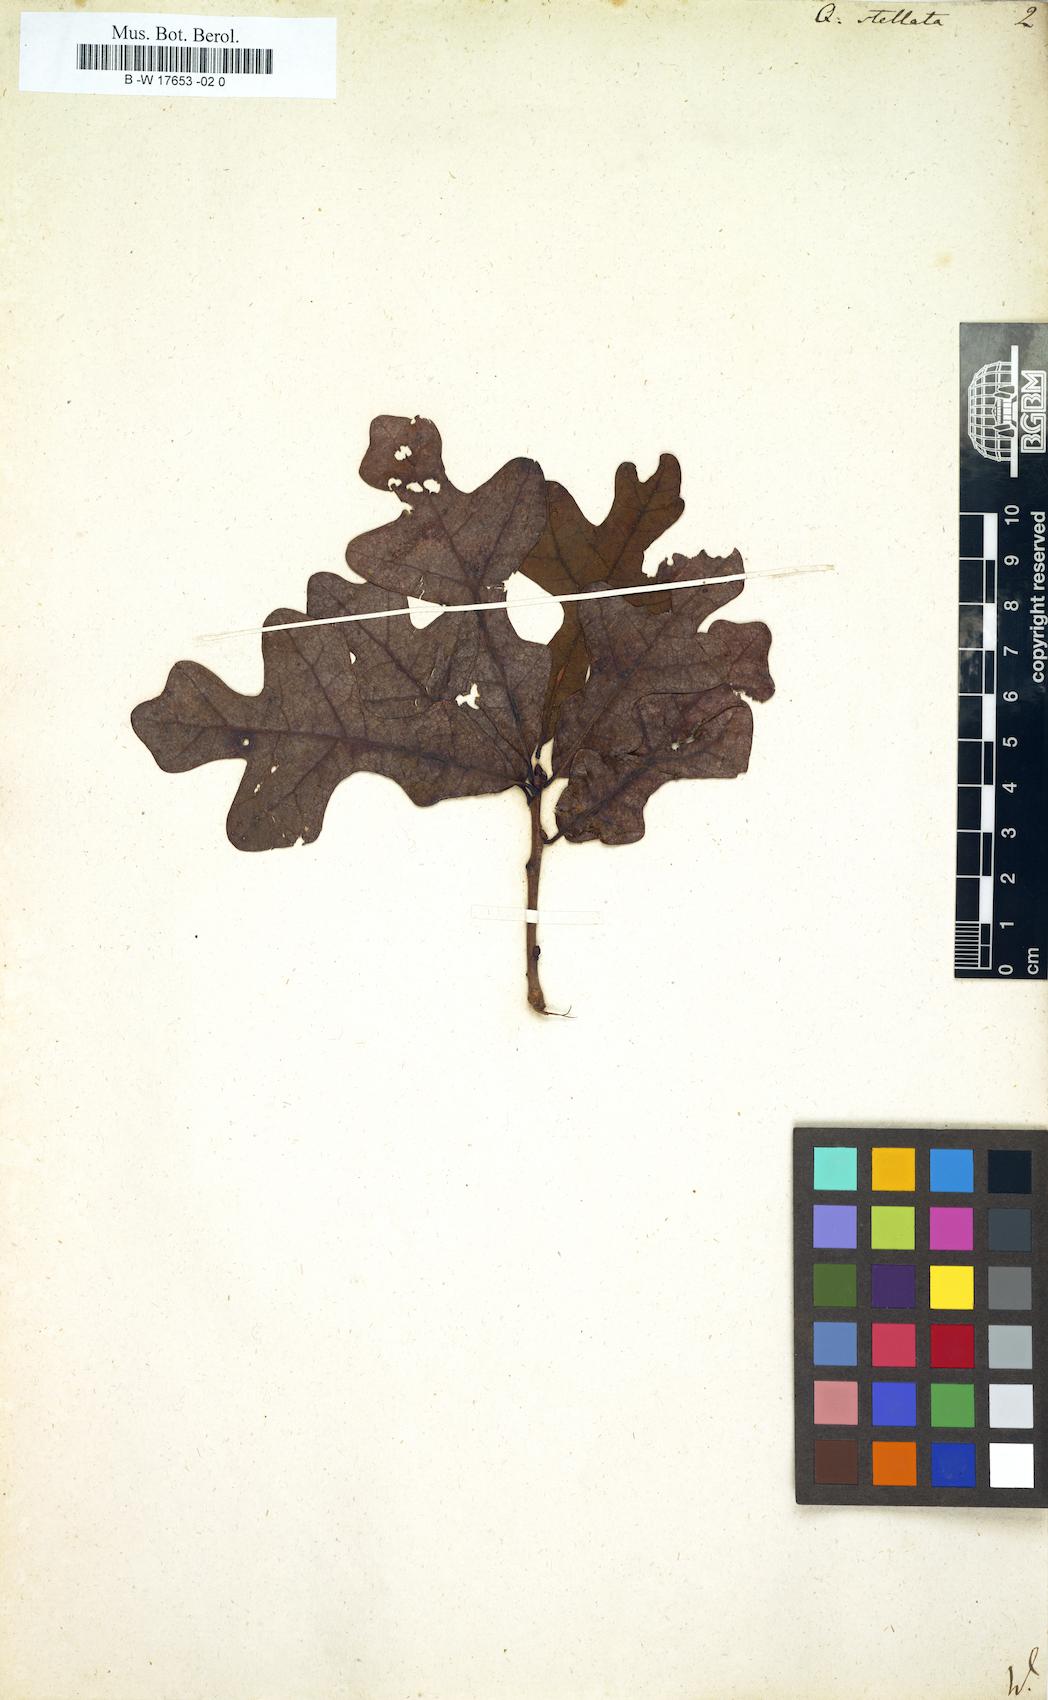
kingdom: Plantae
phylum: Tracheophyta
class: Magnoliopsida
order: Fagales
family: Fagaceae
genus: Quercus
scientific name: Quercus stellata
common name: Post oak
